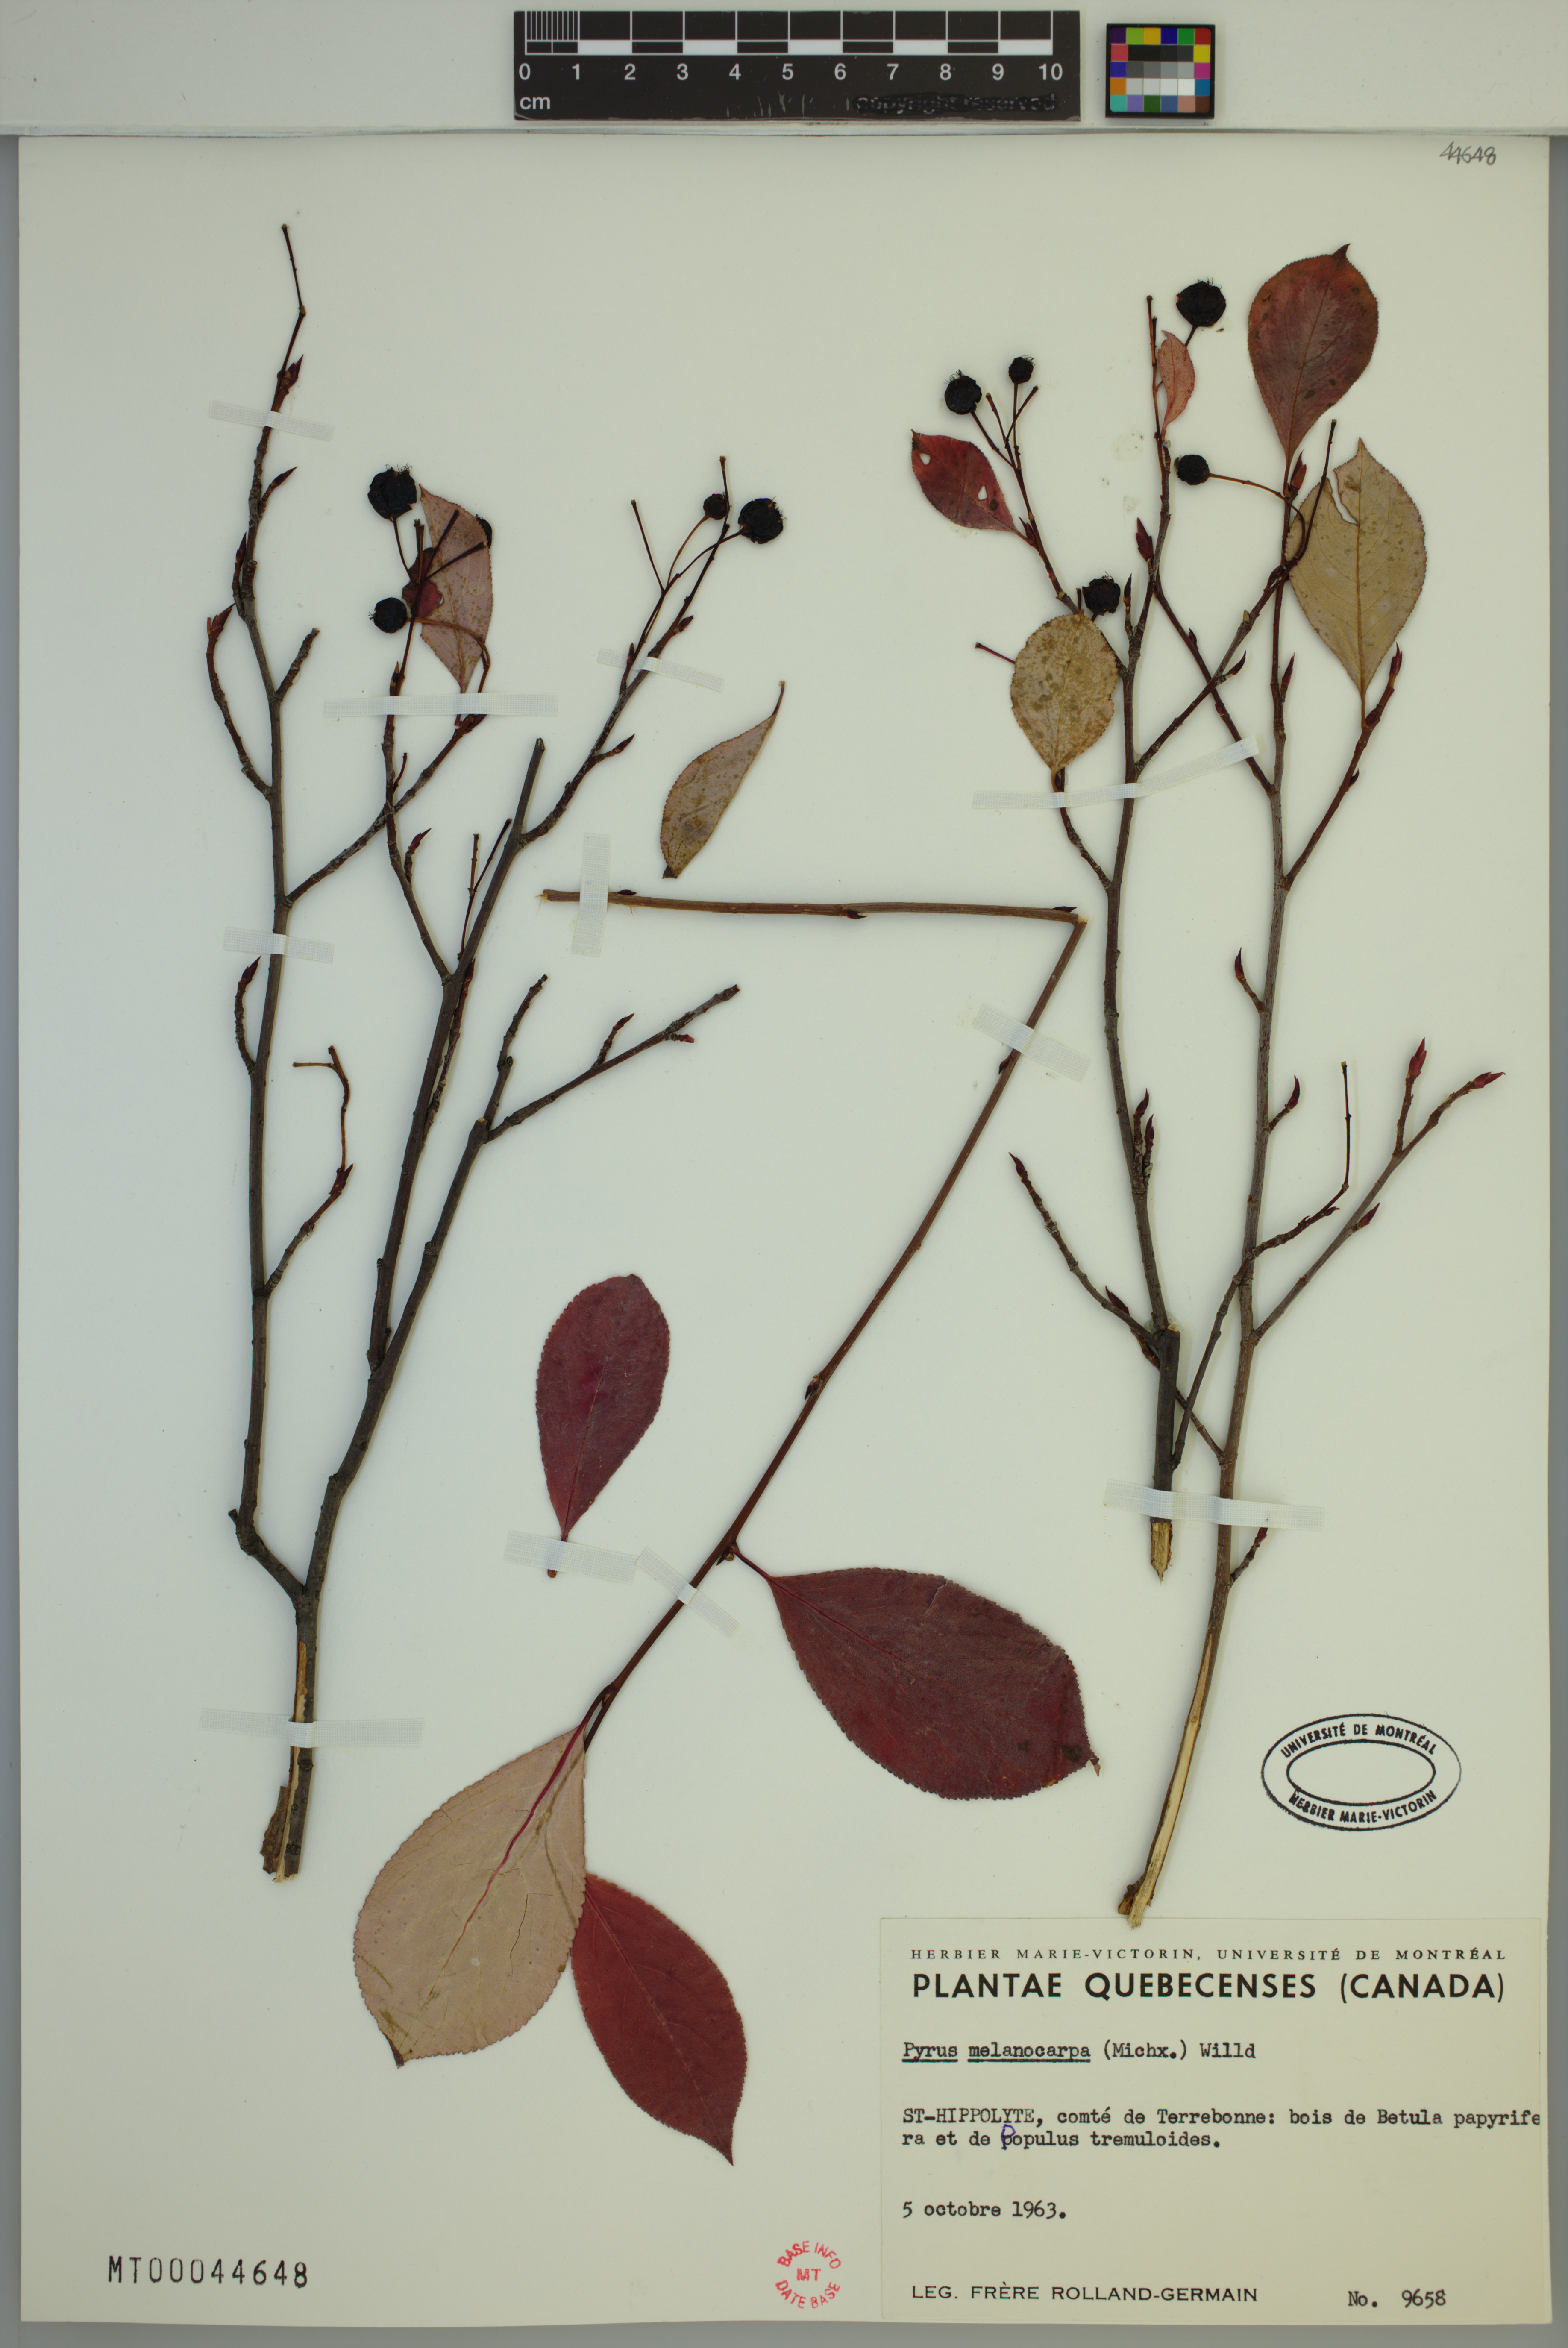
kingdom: Plantae
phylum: Tracheophyta
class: Magnoliopsida
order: Rosales
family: Rosaceae
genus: Aronia
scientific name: Aronia melanocarpa
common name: Black chokeberry
